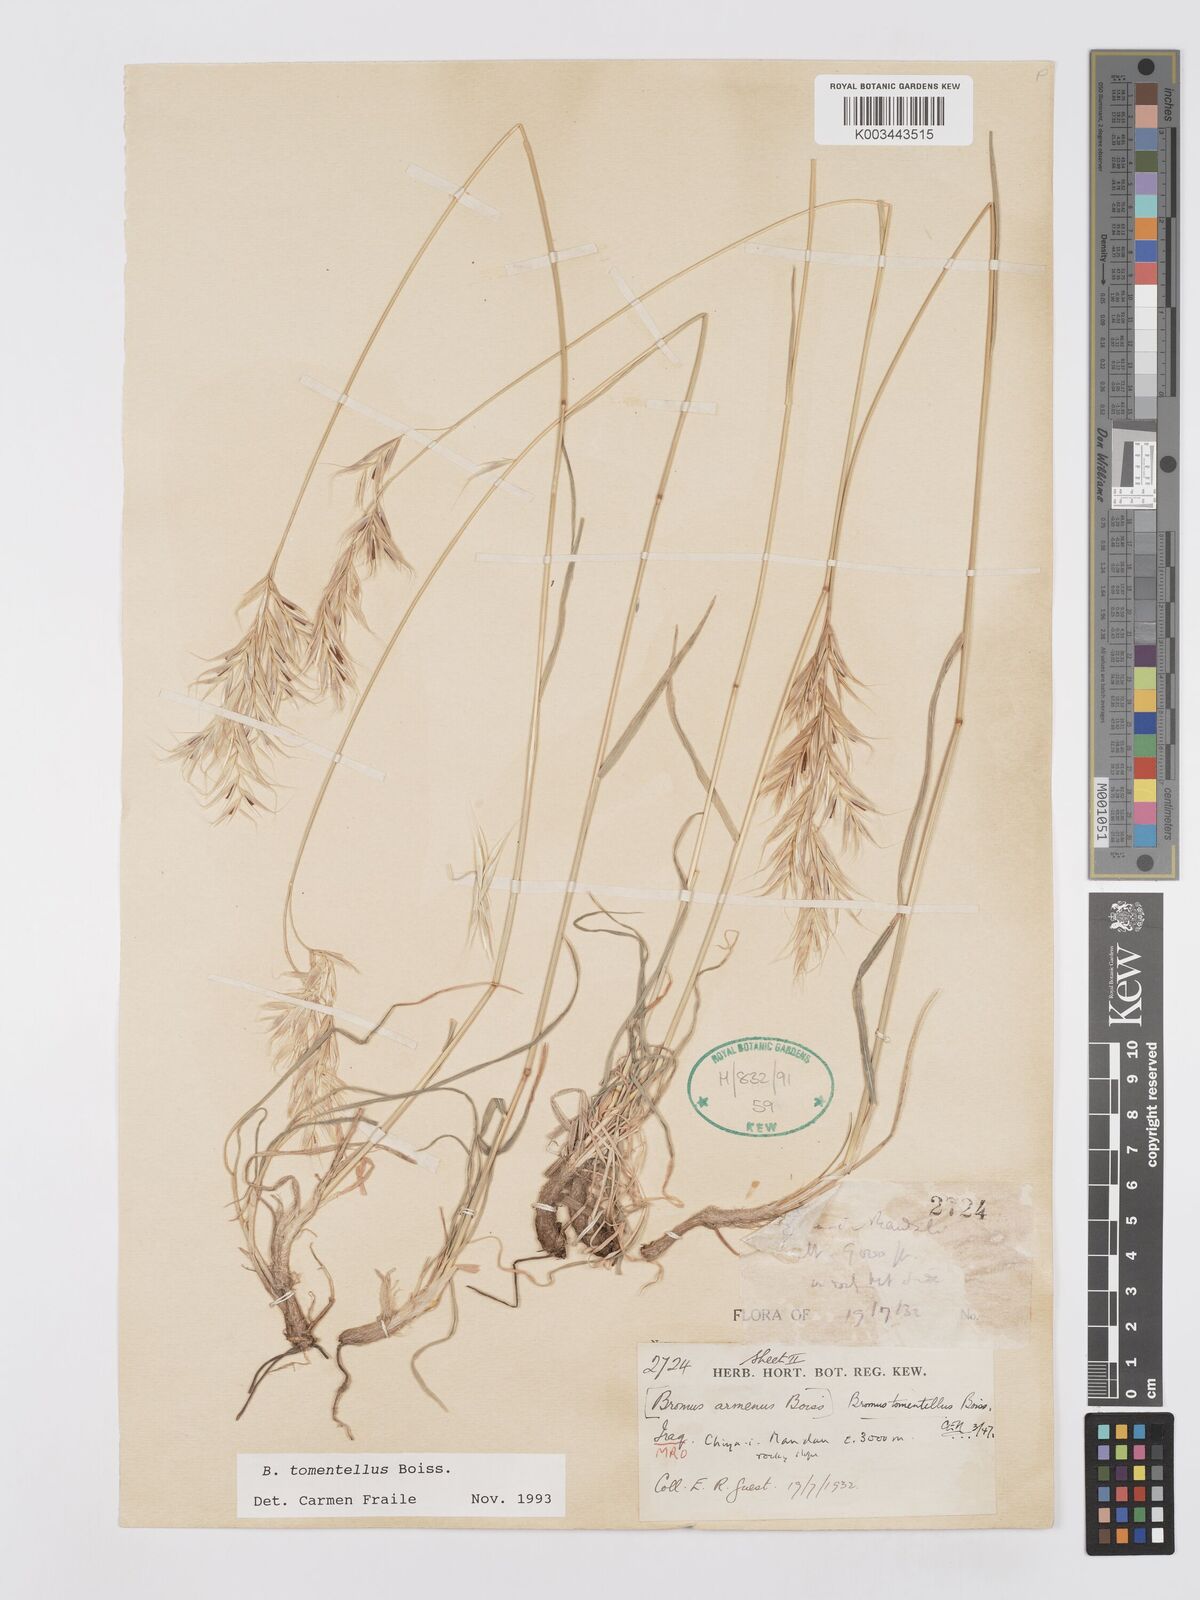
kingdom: Plantae
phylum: Tracheophyta
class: Liliopsida
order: Poales
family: Poaceae
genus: Bromus
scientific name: Bromus tomentellus
